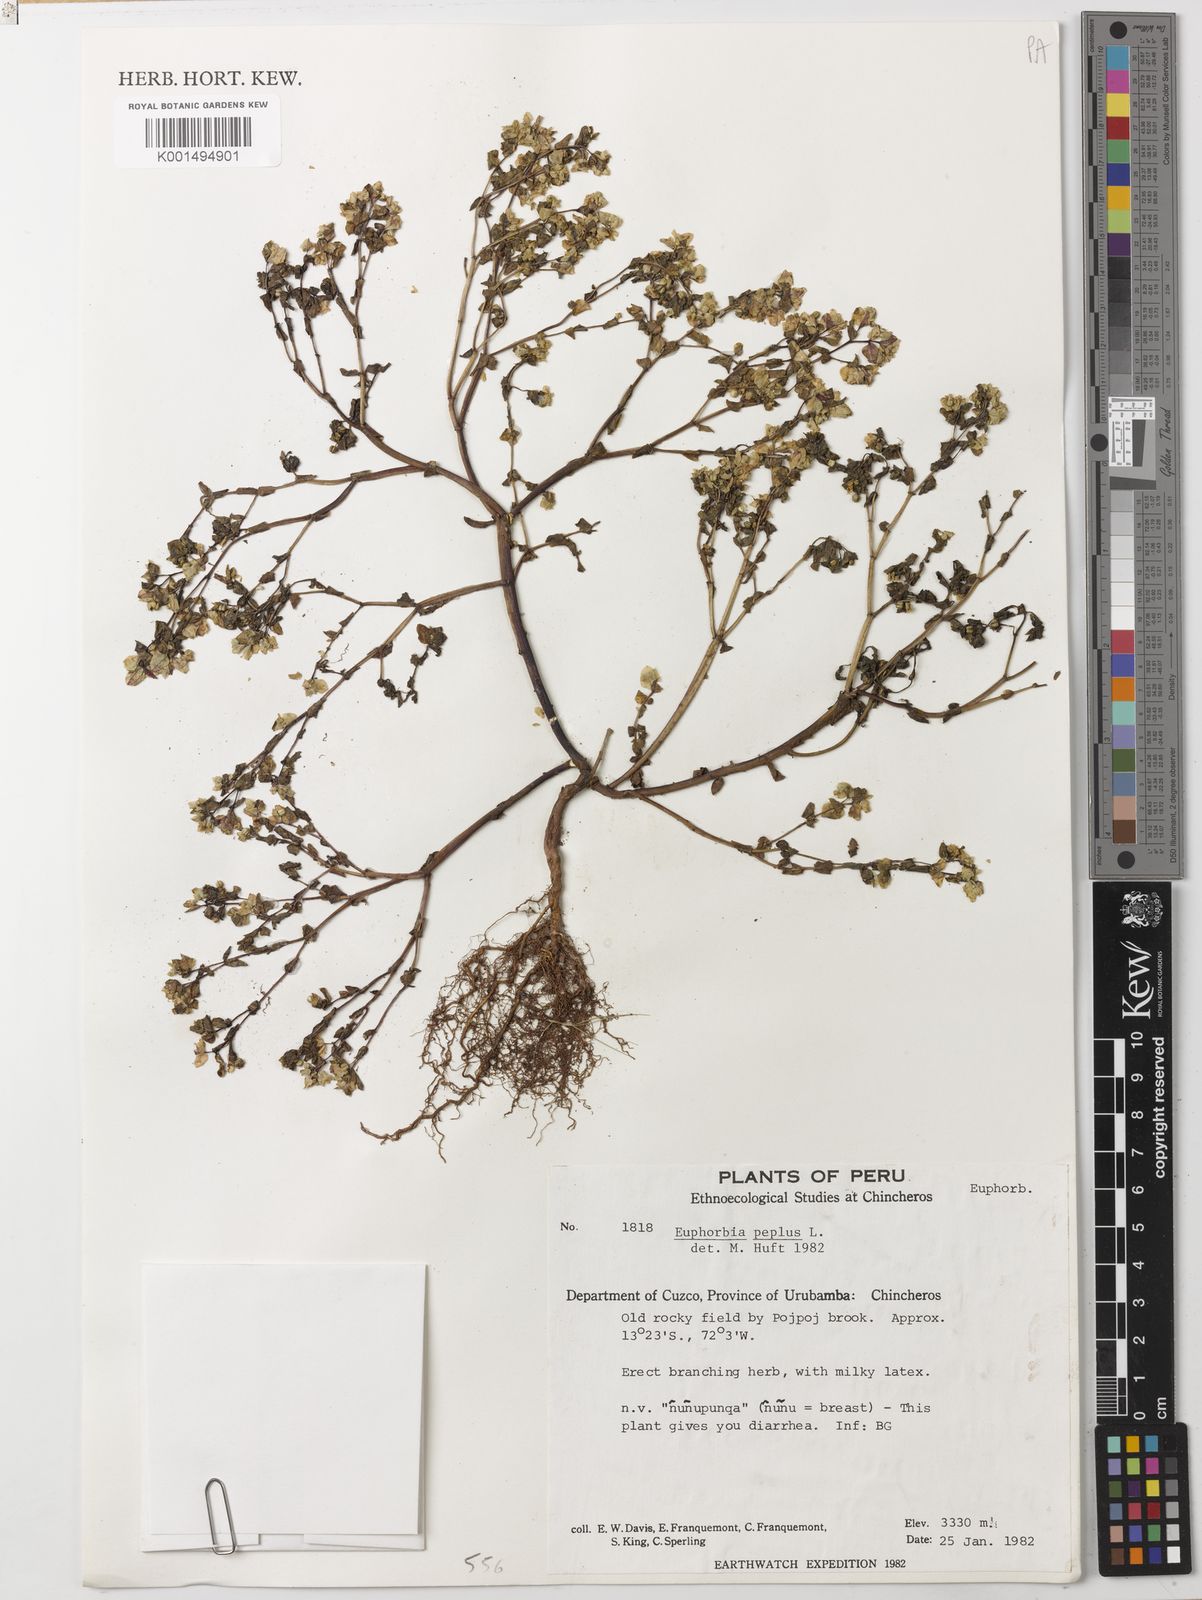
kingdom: Plantae
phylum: Tracheophyta
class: Magnoliopsida
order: Malpighiales
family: Euphorbiaceae
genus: Euphorbia
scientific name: Euphorbia peplus
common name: Petty spurge
